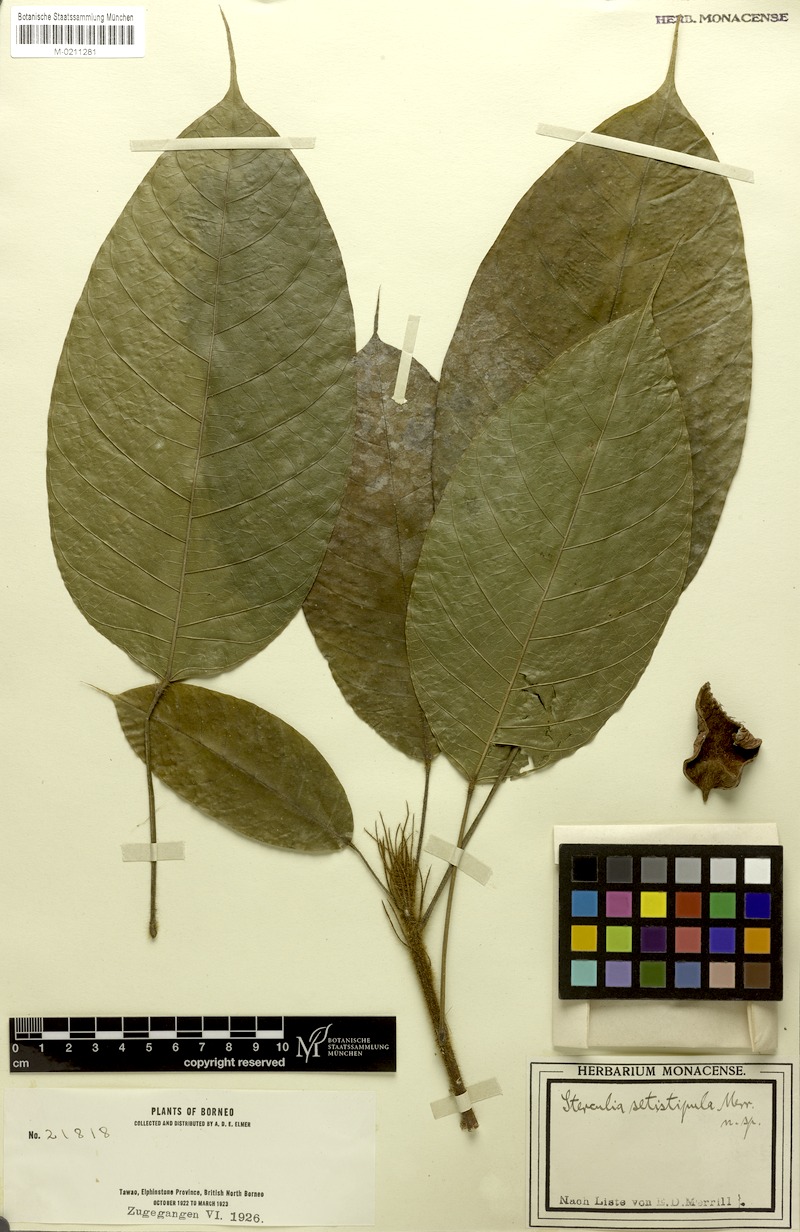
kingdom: Plantae
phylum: Tracheophyta
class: Magnoliopsida
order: Malvales
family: Malvaceae
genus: Sterculia
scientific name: Sterculia rubiginosa
